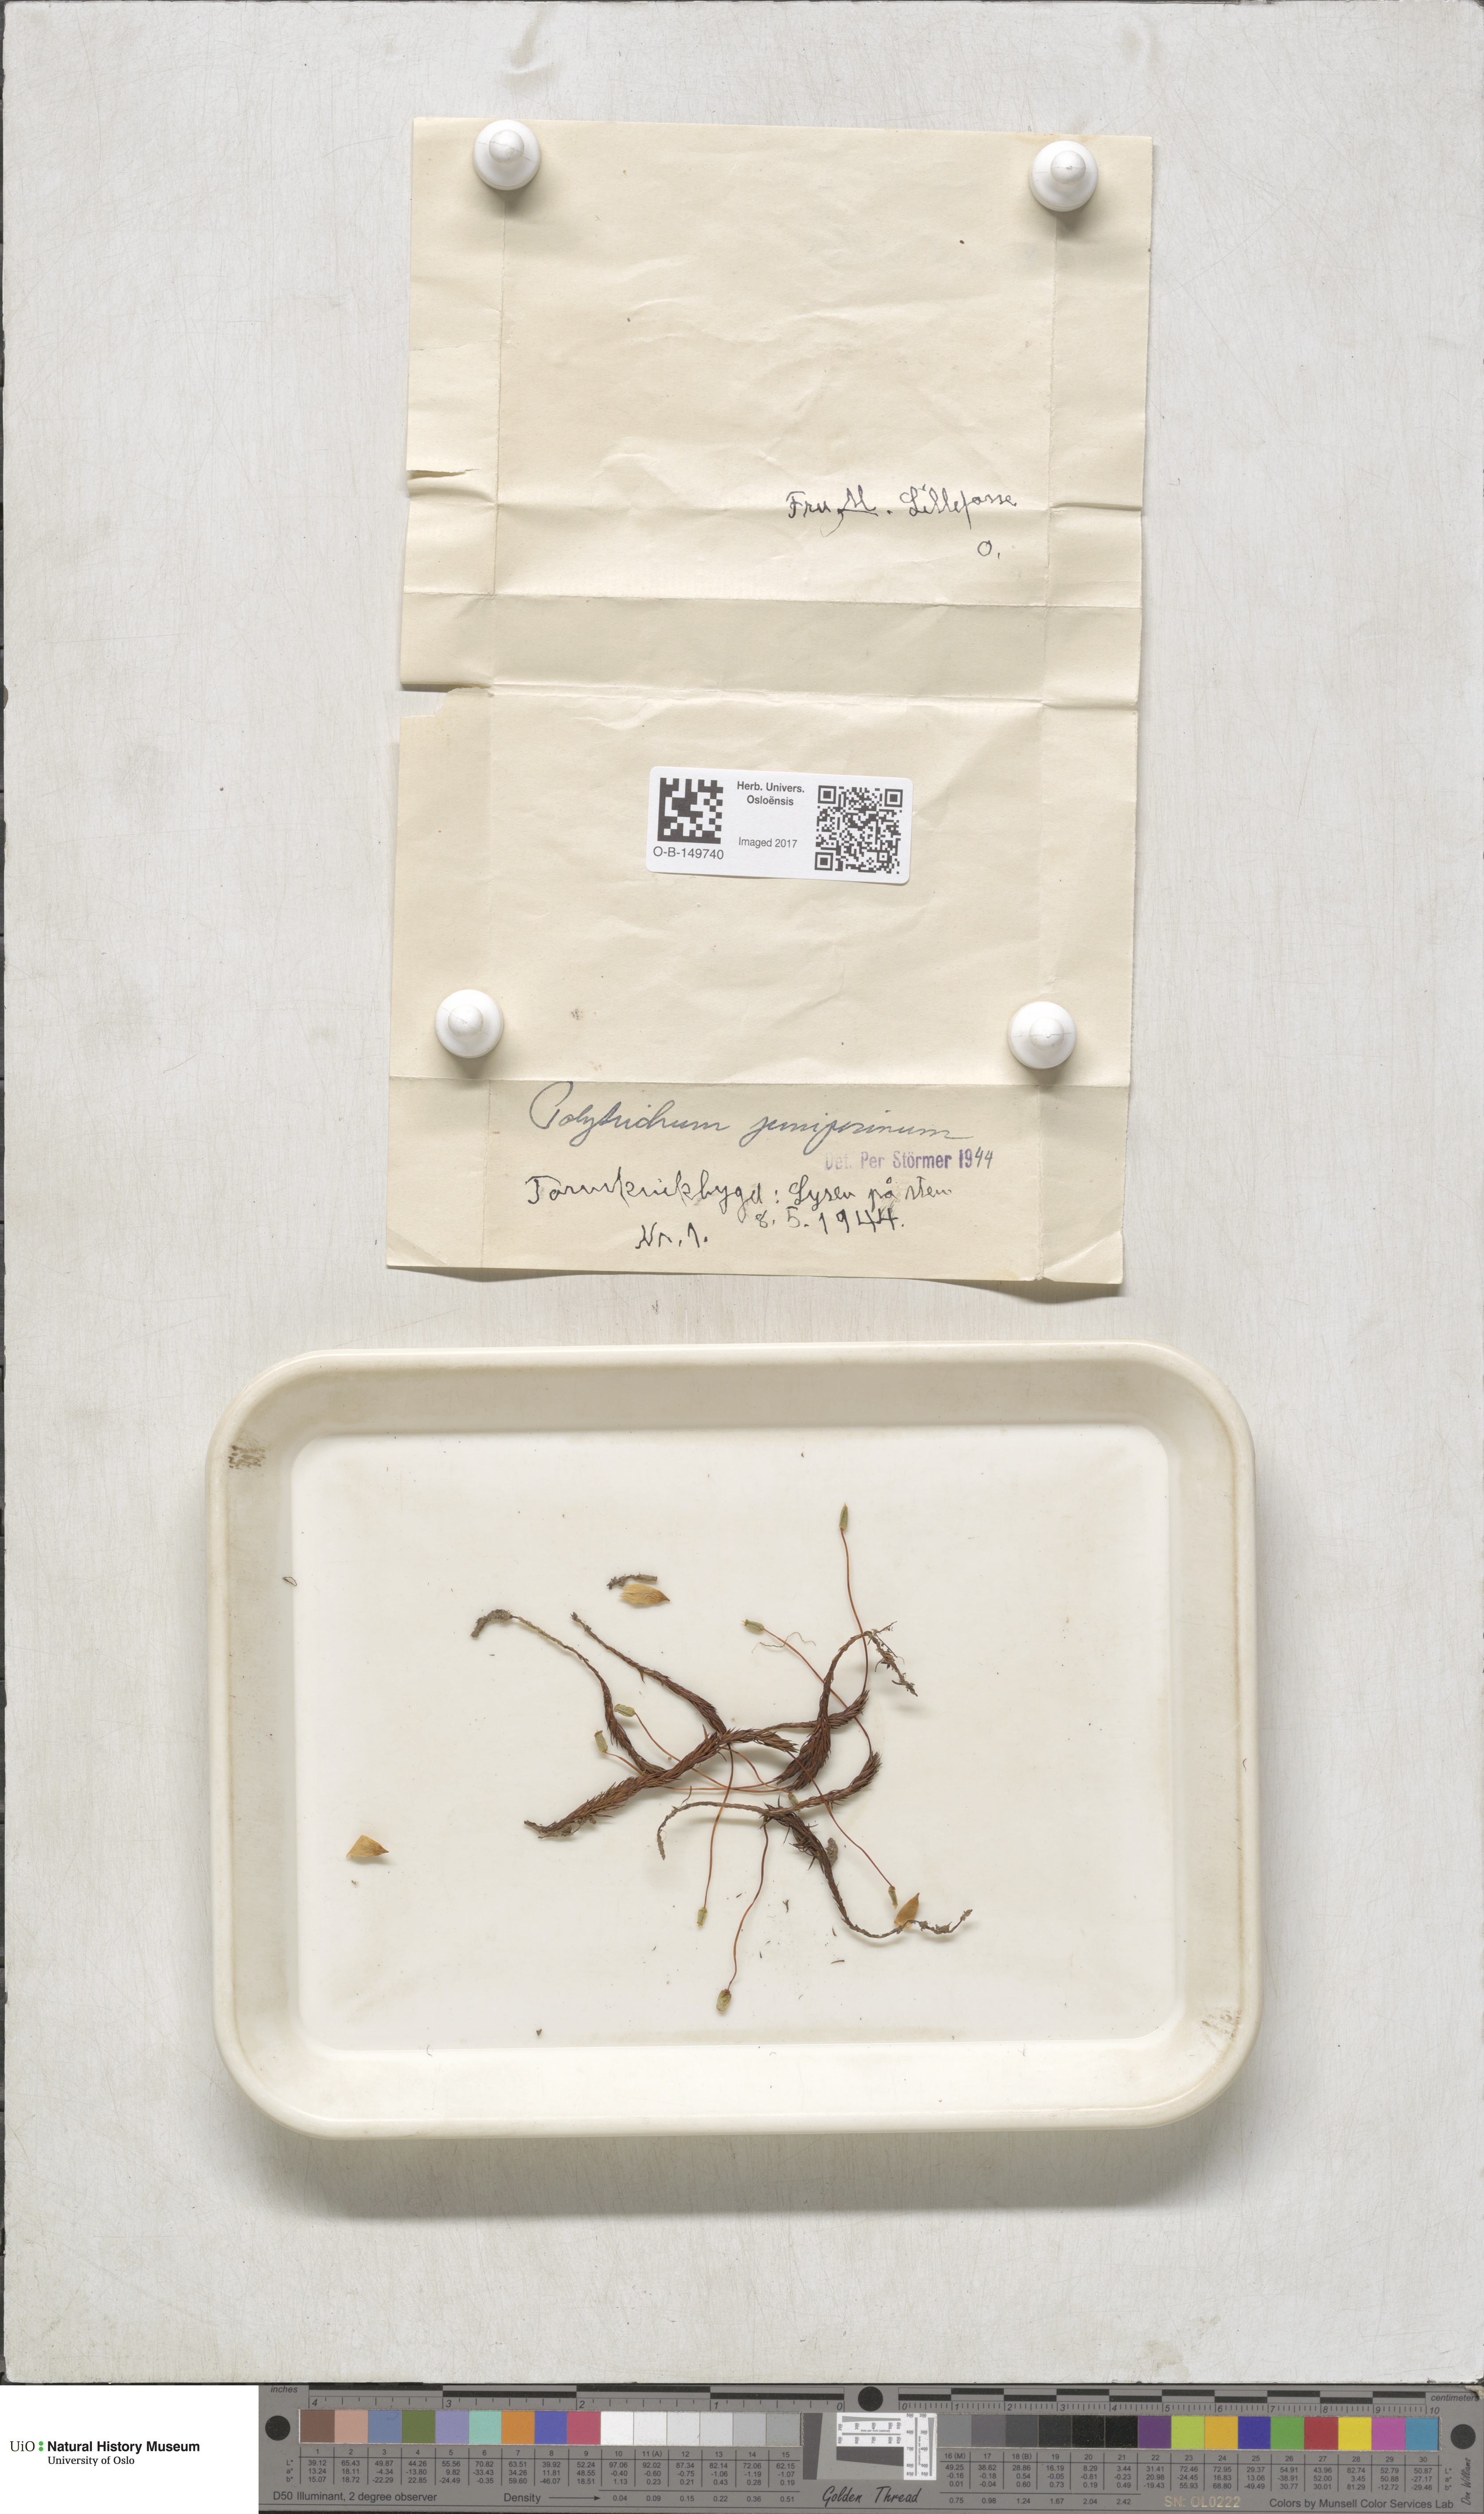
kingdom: Plantae
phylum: Bryophyta
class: Polytrichopsida
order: Polytrichales
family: Polytrichaceae
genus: Polytrichum
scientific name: Polytrichum juniperinum
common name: Juniper haircap moss
